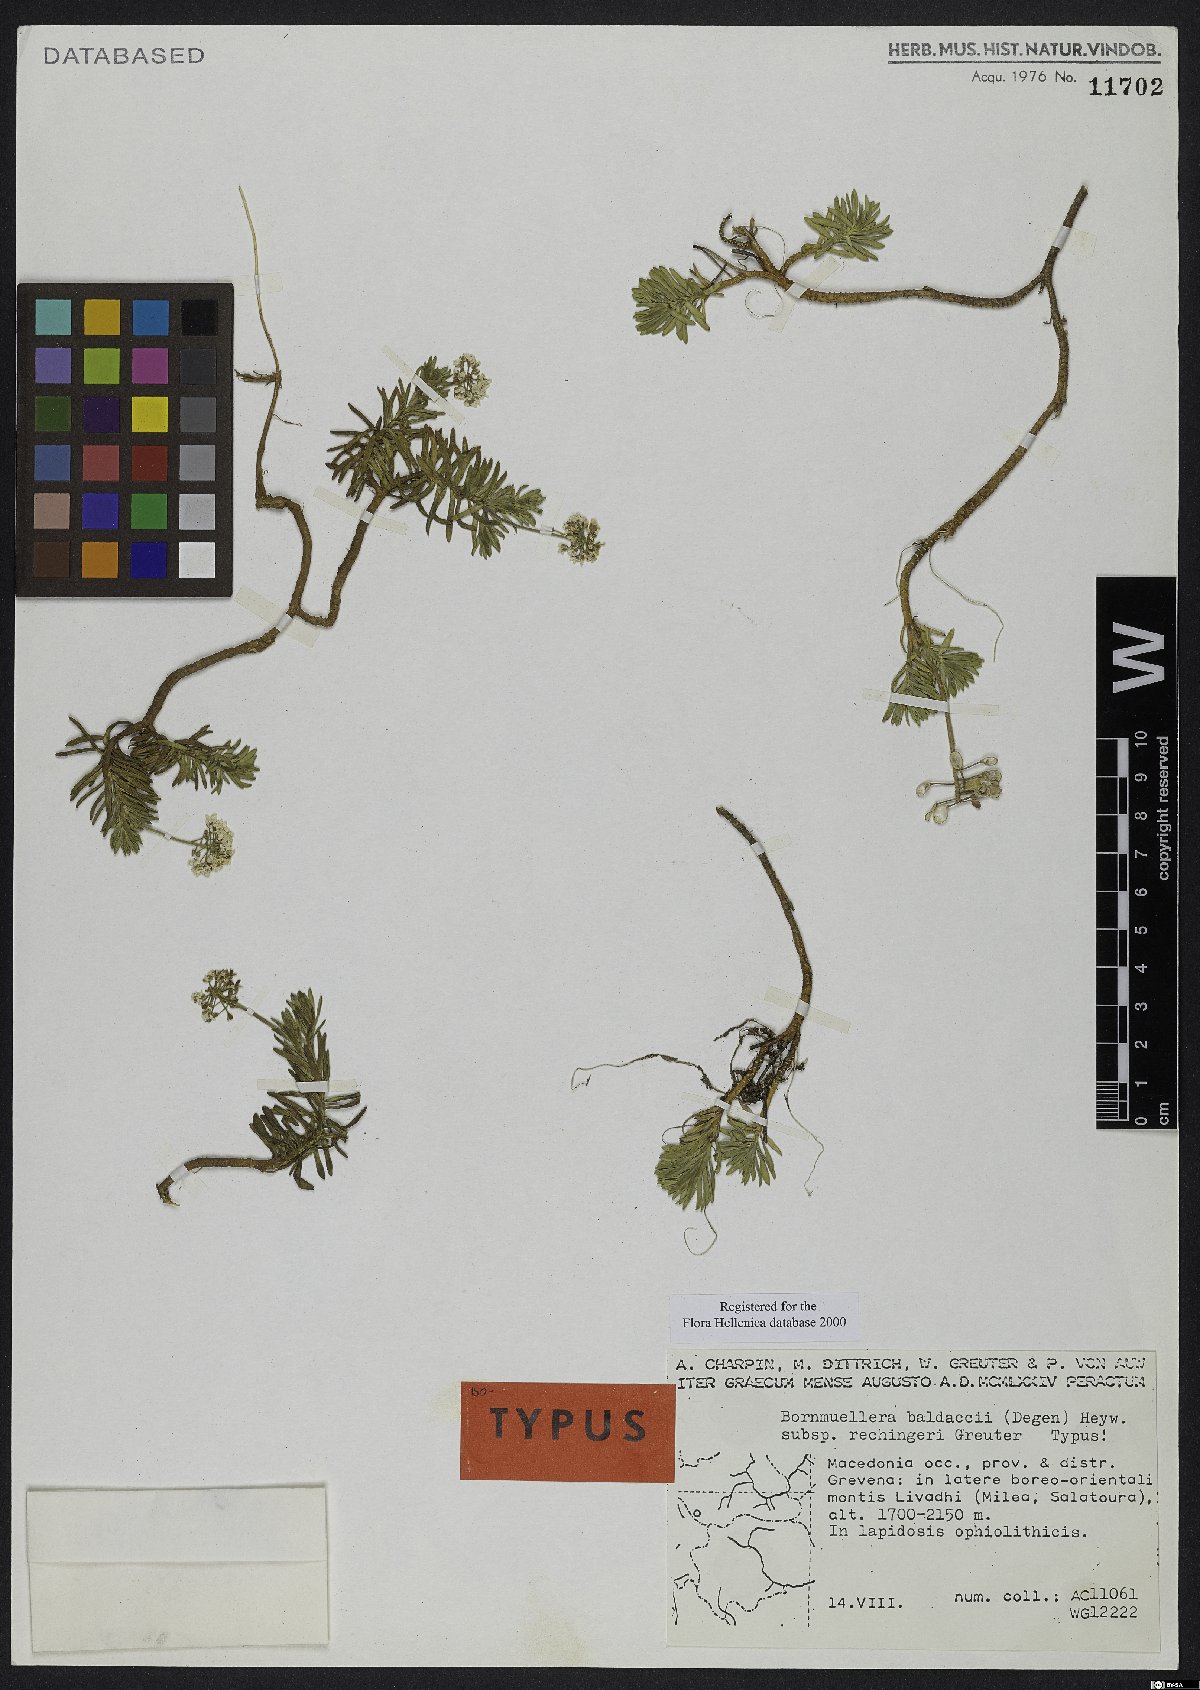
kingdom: Plantae
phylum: Tracheophyta
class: Magnoliopsida
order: Brassicales
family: Brassicaceae
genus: Bornmuellera
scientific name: Bornmuellera baldaccii
